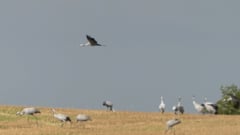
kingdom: Animalia
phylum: Chordata
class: Aves
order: Gruiformes
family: Gruidae
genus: Grus
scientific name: Grus grus
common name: Common crane
